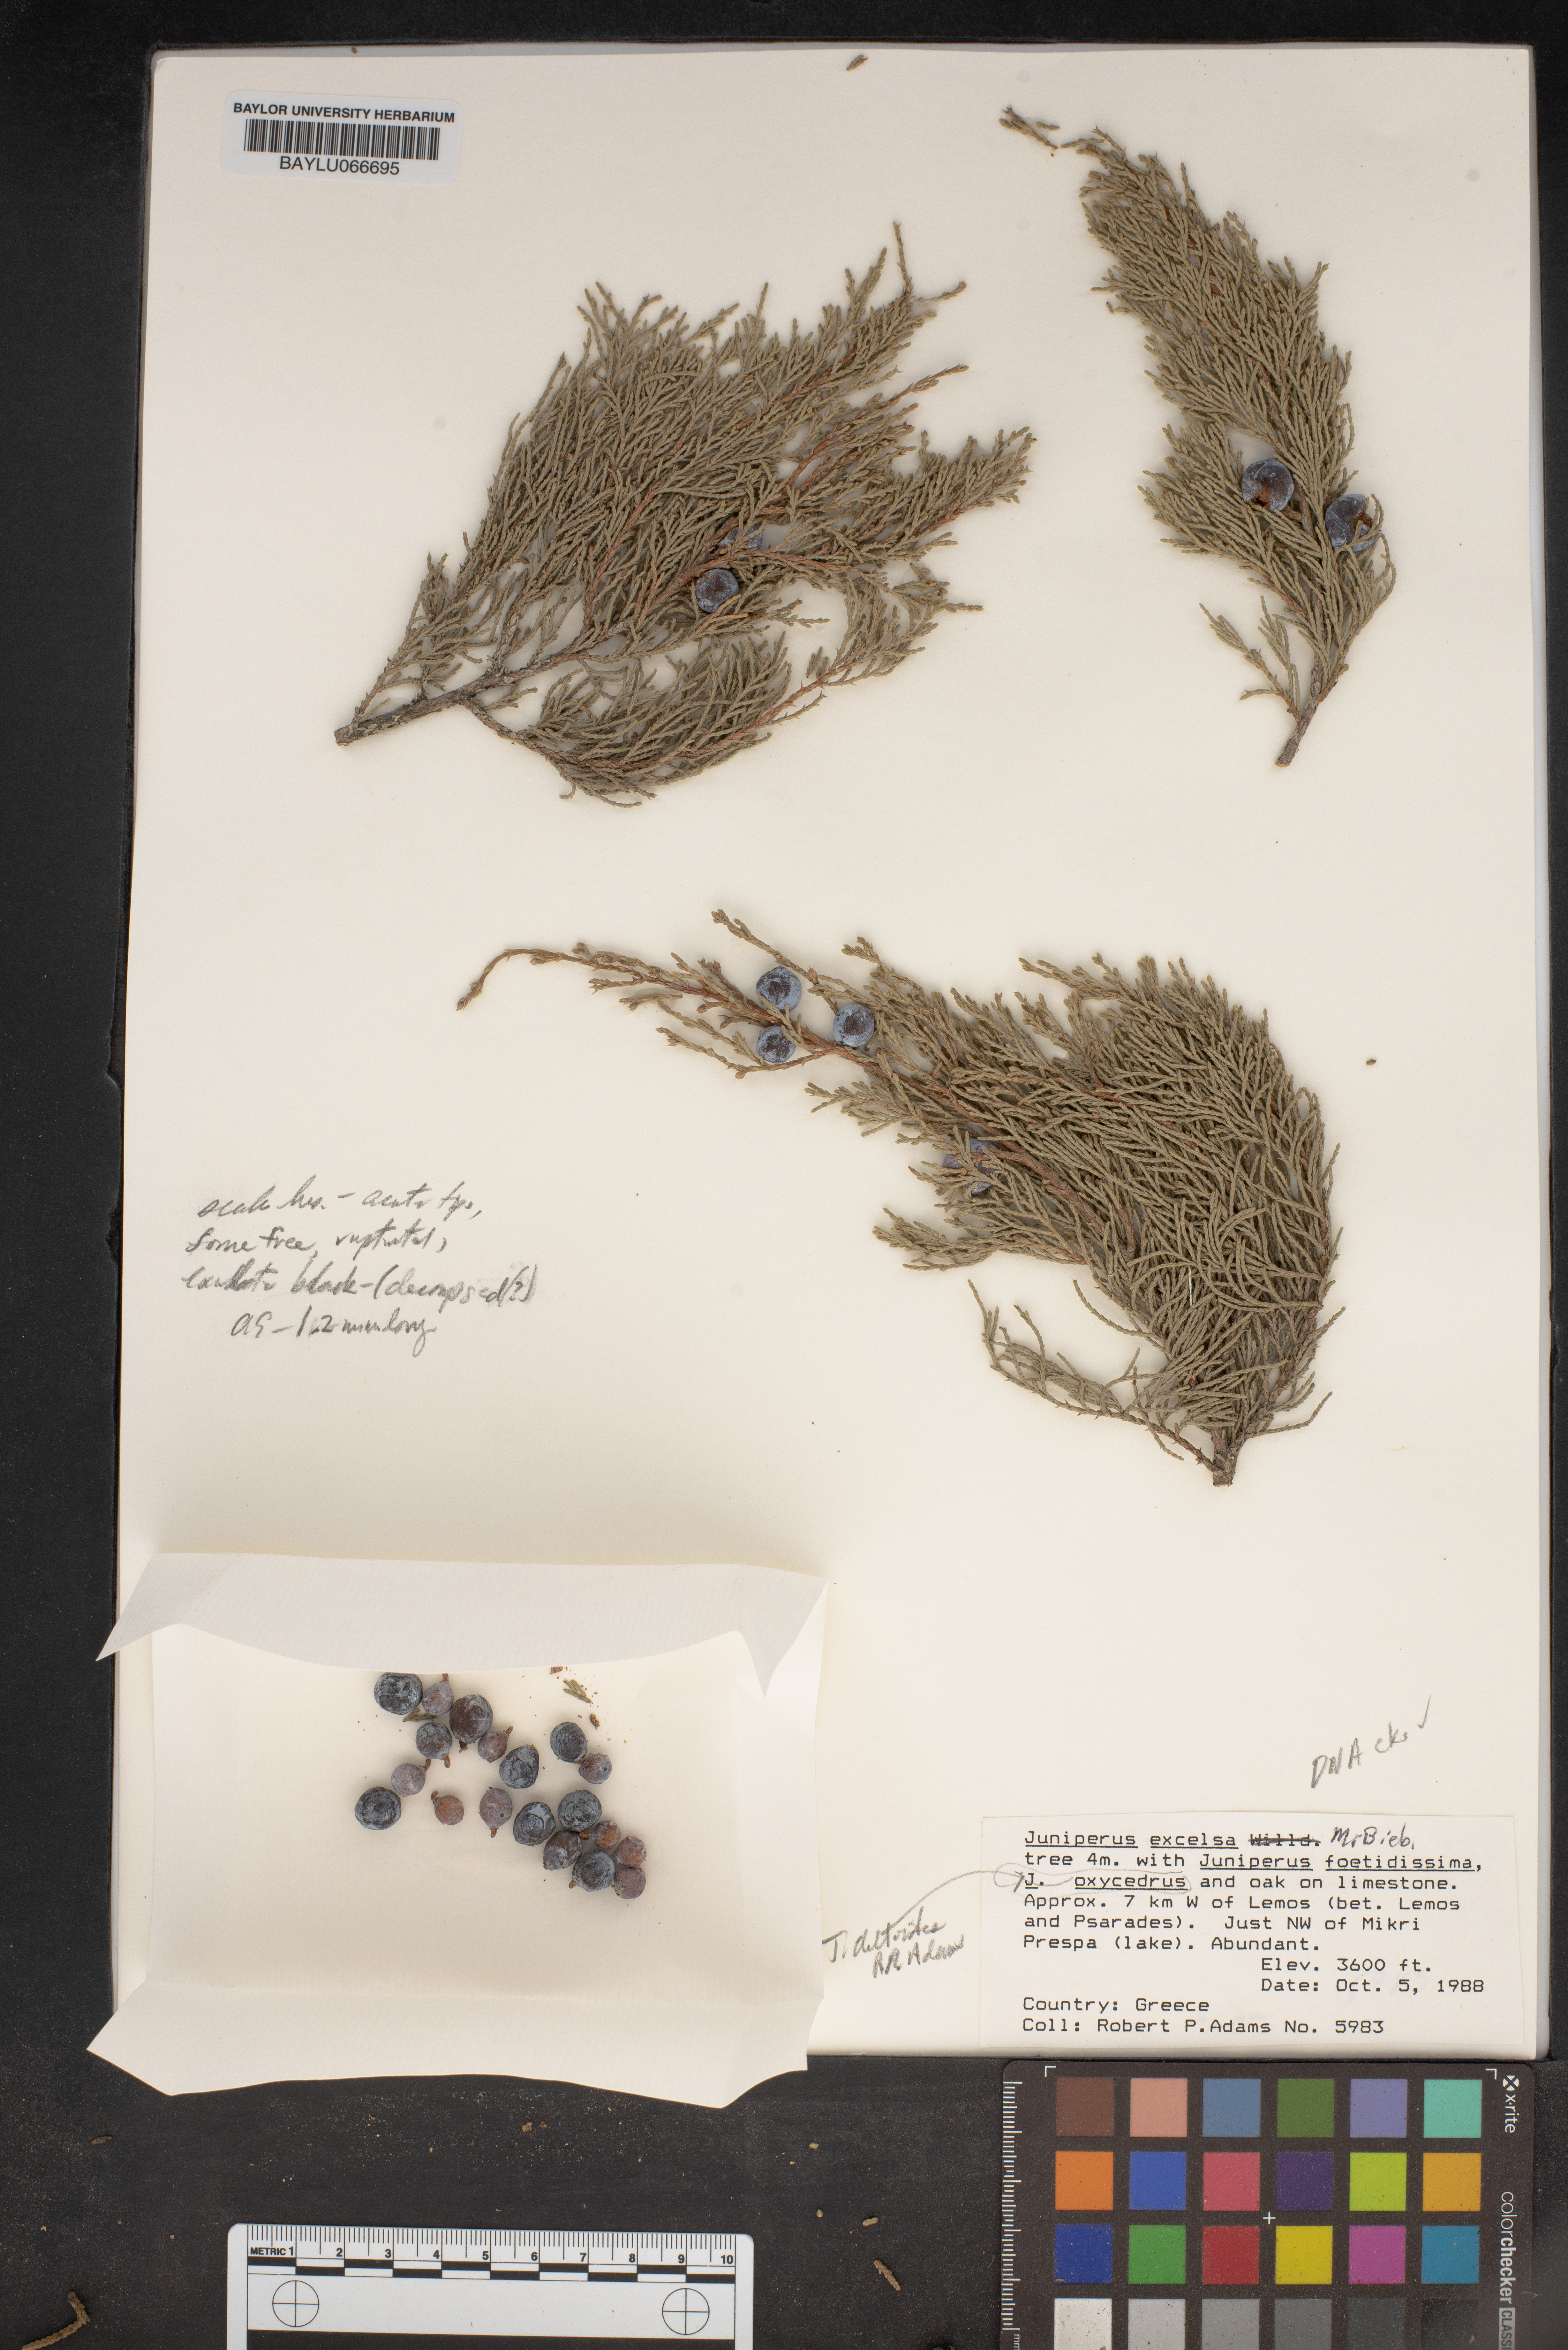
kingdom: Plantae
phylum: Tracheophyta
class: Pinopsida
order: Pinales
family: Cupressaceae
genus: Juniperus
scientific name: Juniperus excelsa
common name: Crimean juniper
